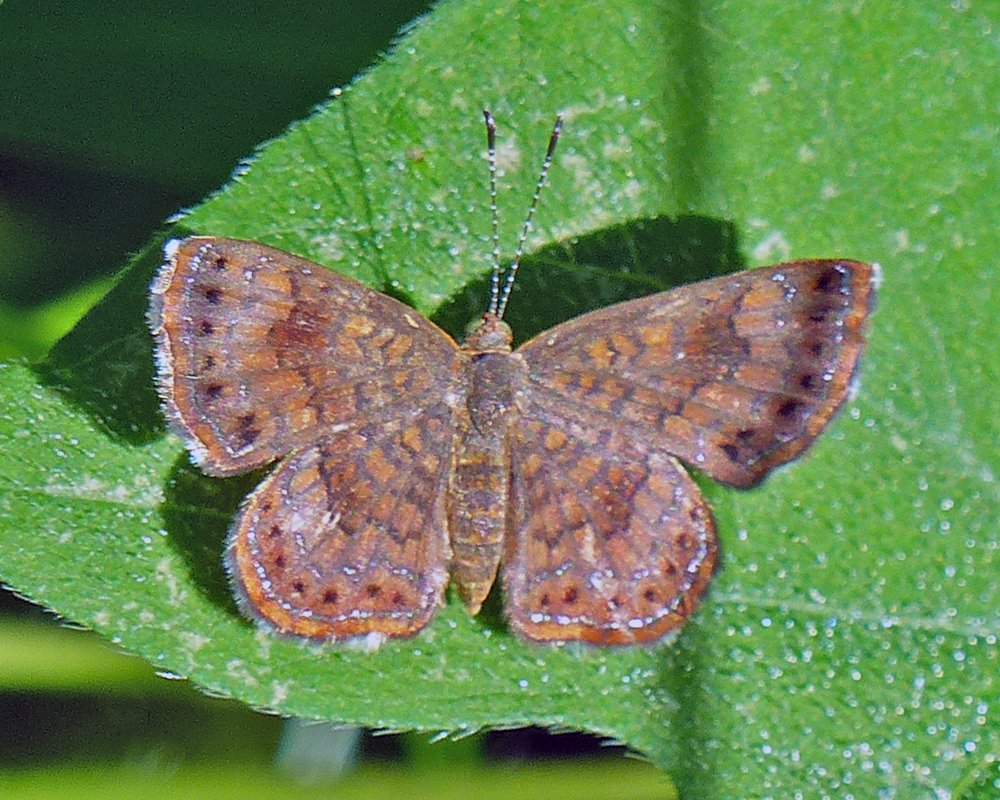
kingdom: Animalia
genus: Calephelis
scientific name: Calephelis nemesis
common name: Fatal Metalmark
